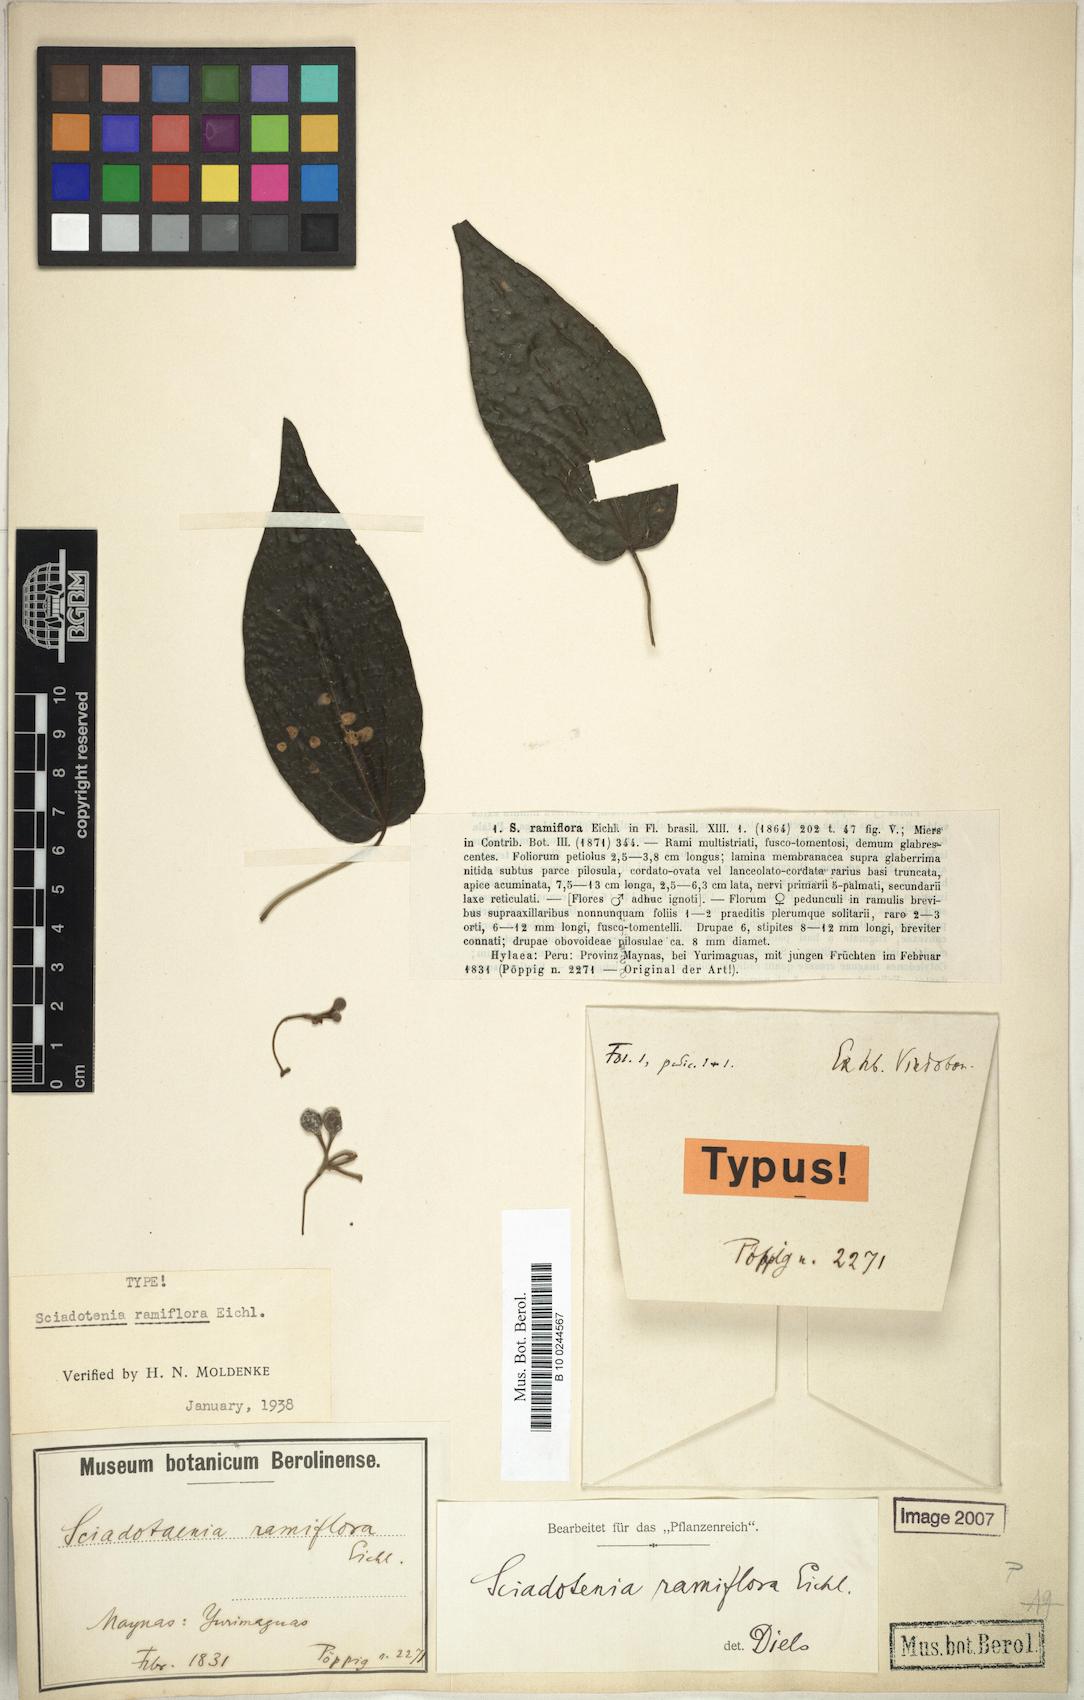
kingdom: Plantae
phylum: Tracheophyta
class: Magnoliopsida
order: Ranunculales
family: Menispermaceae
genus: Sciadotenia
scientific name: Sciadotenia ramiflora
